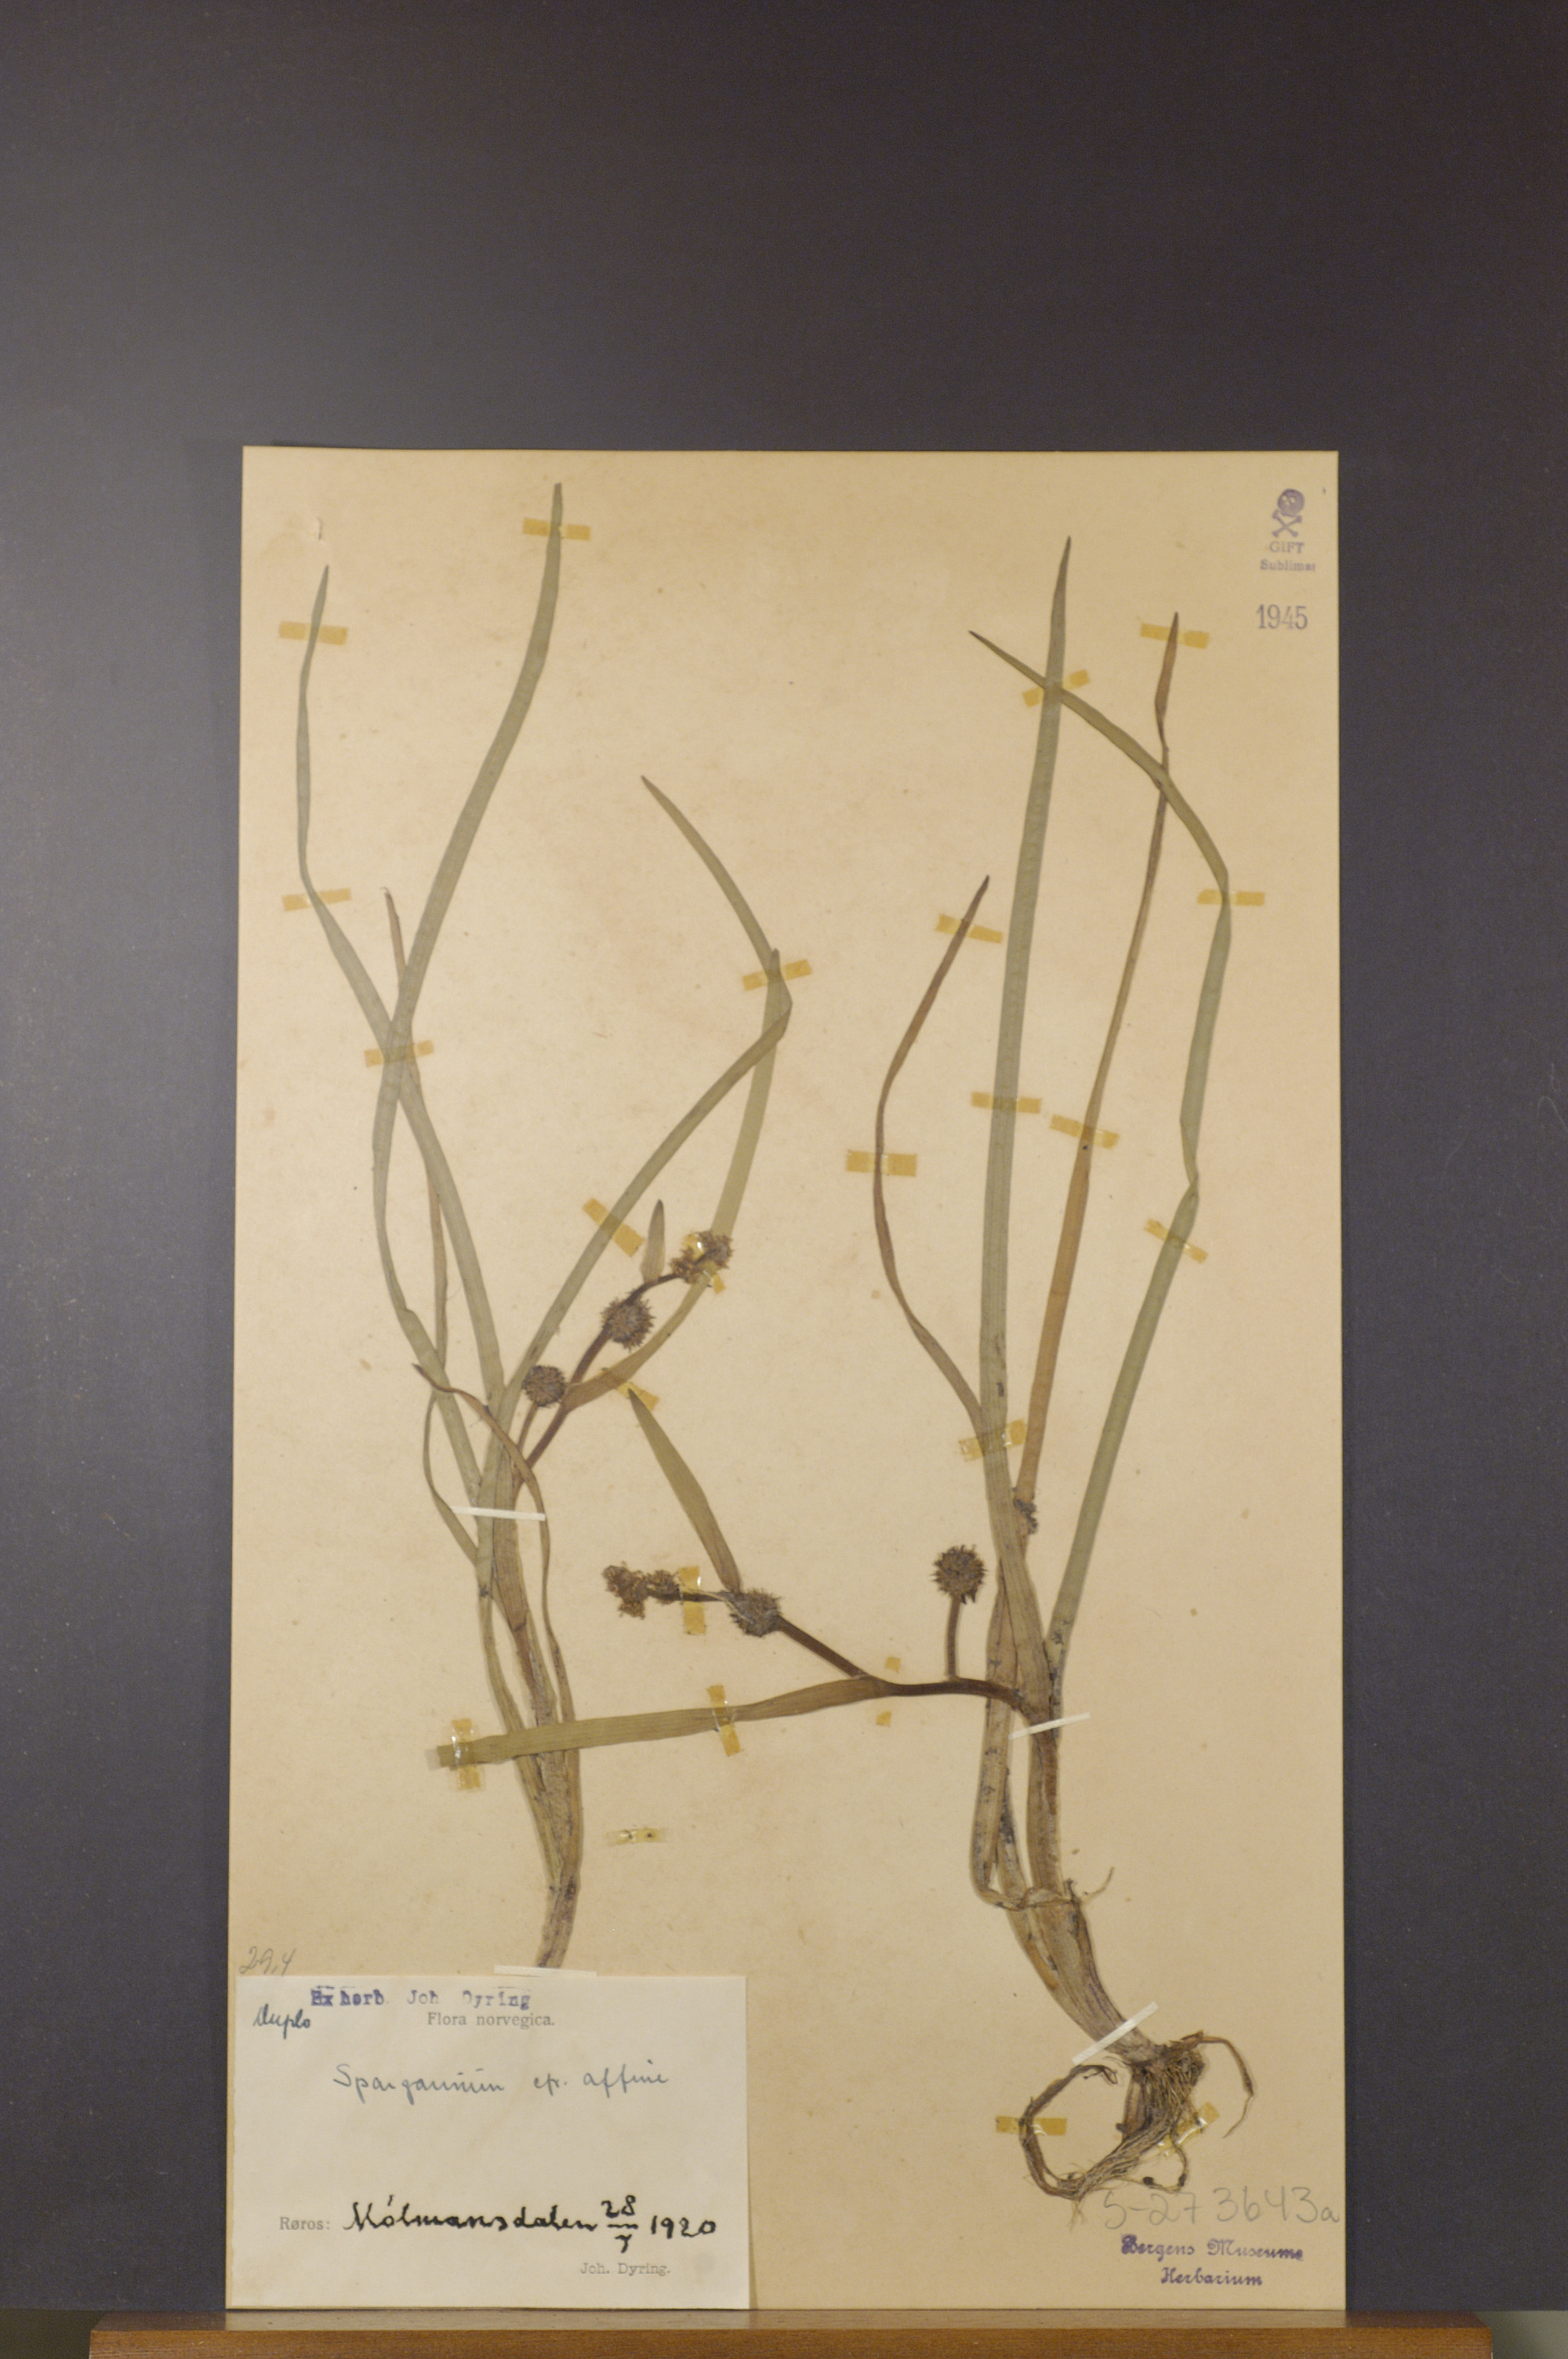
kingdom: Plantae
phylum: Tracheophyta
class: Liliopsida
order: Poales
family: Typhaceae
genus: Sparganium
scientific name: Sparganium angustifolium
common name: Floating bur-reed
